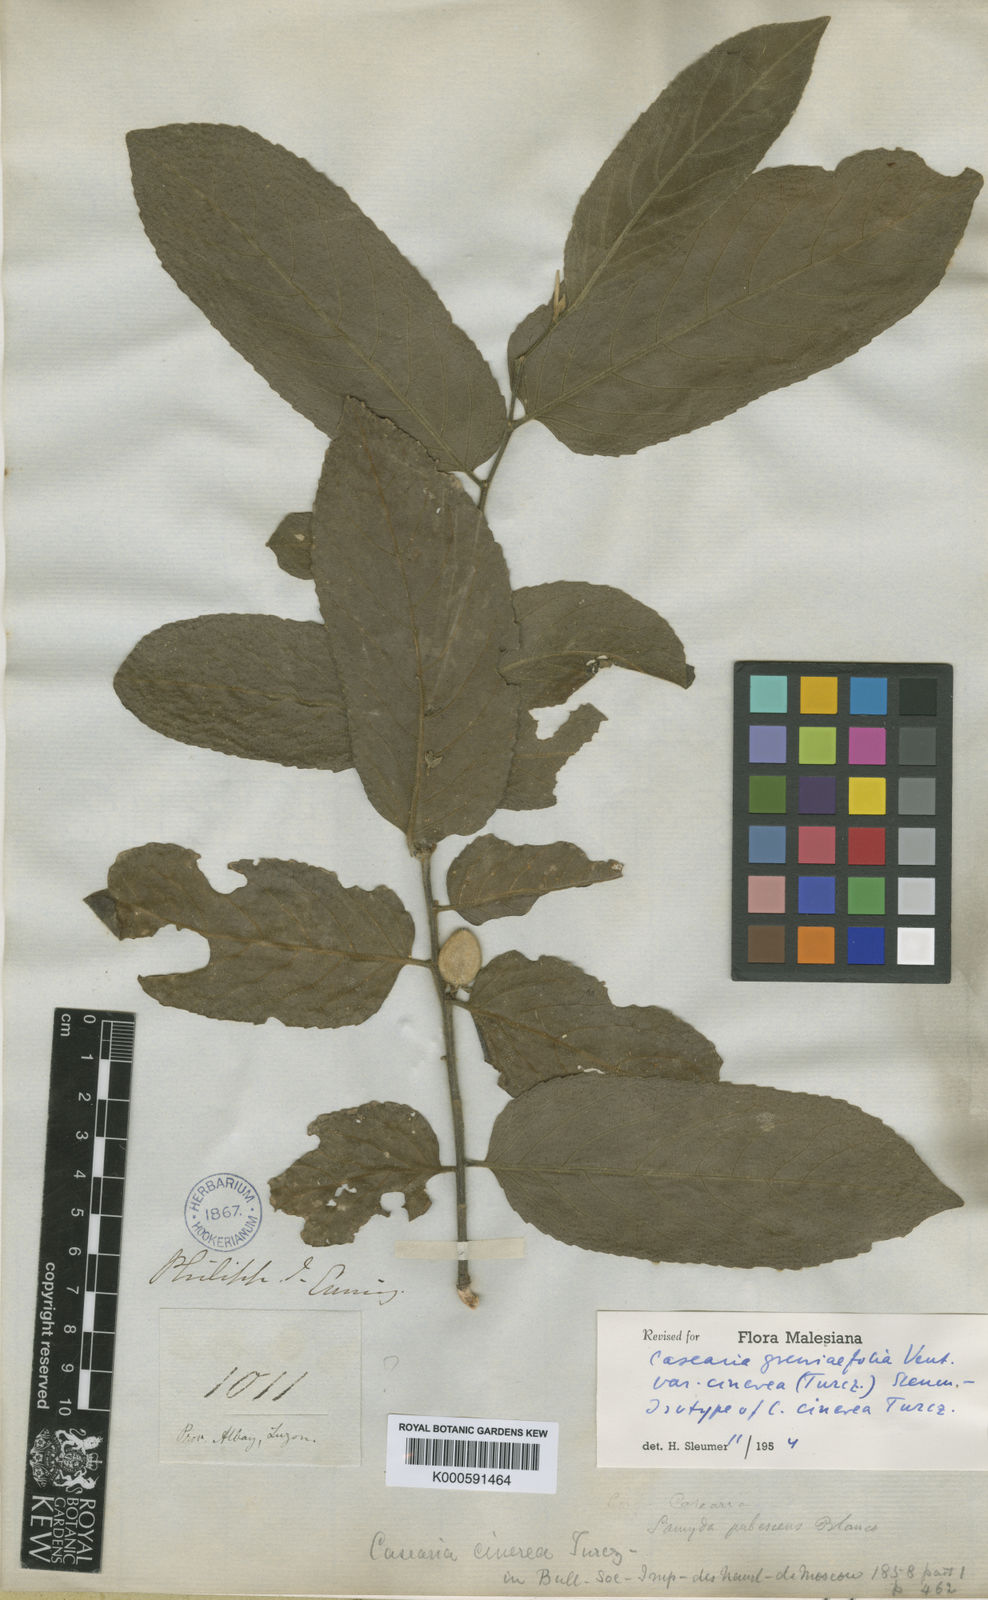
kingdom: Plantae
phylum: Tracheophyta
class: Magnoliopsida
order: Malpighiales
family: Salicaceae
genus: Casearia
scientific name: Casearia grewiifolia
